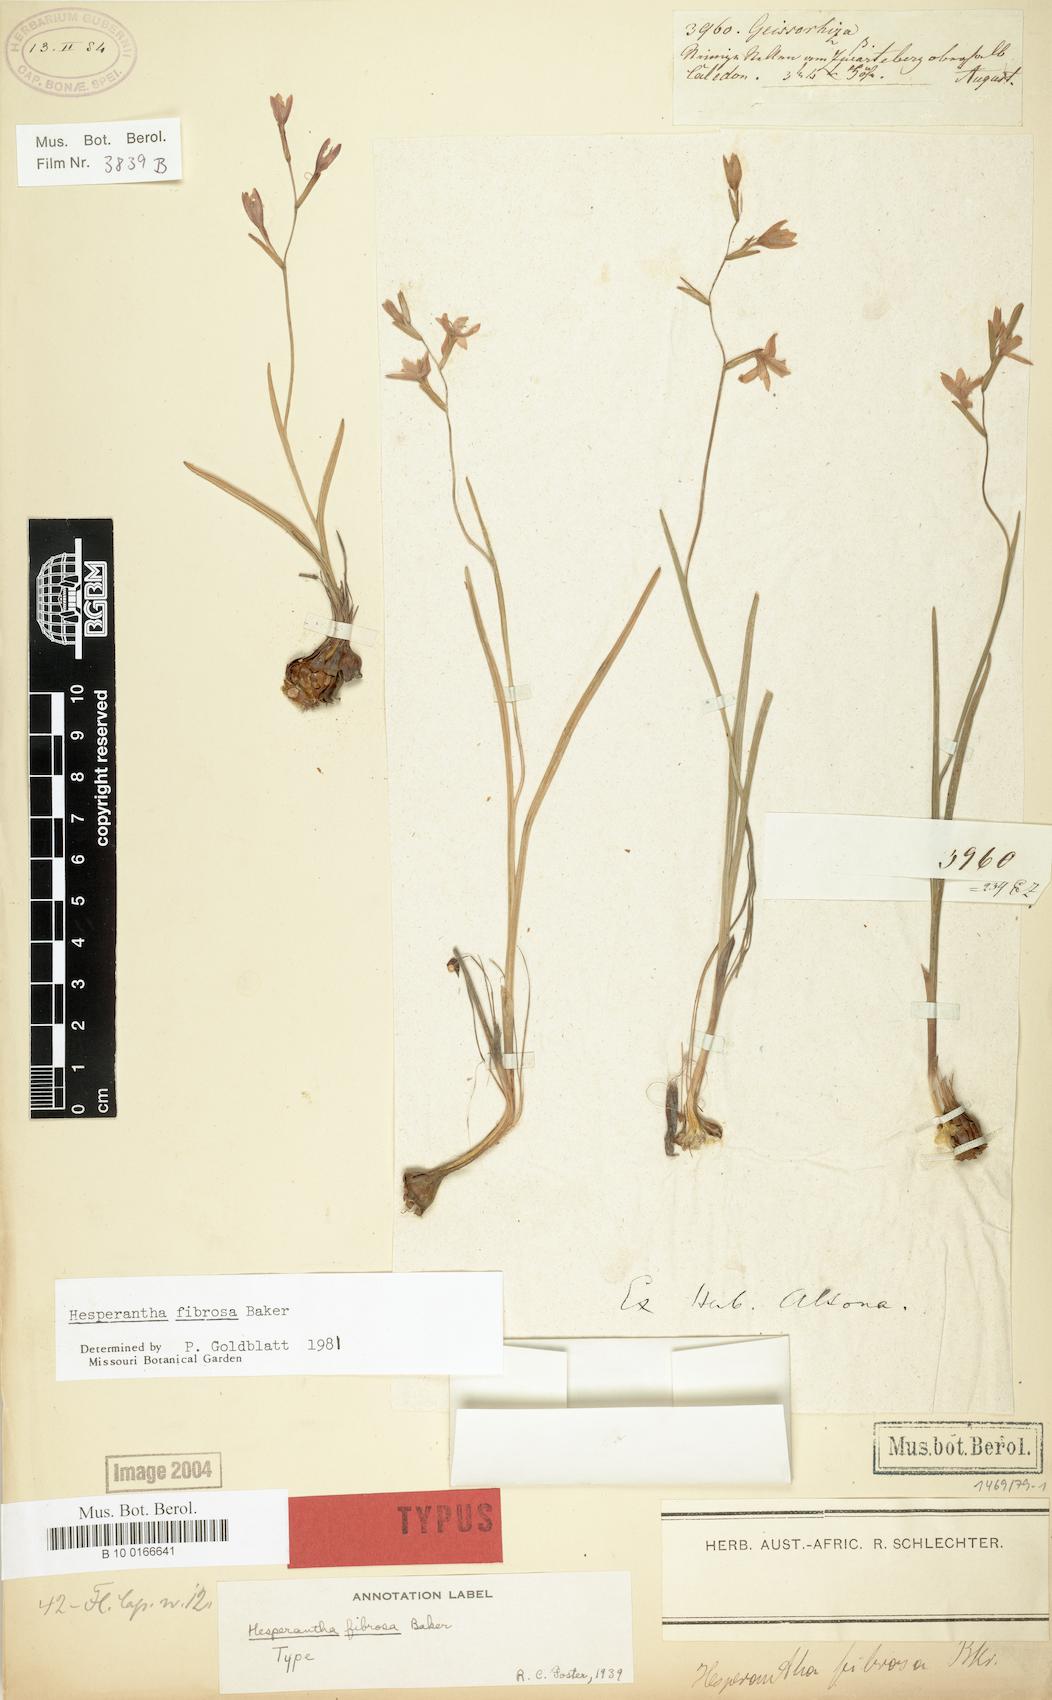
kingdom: Plantae
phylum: Tracheophyta
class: Liliopsida
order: Asparagales
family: Iridaceae
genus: Hesperantha
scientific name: Hesperantha fibrosa
